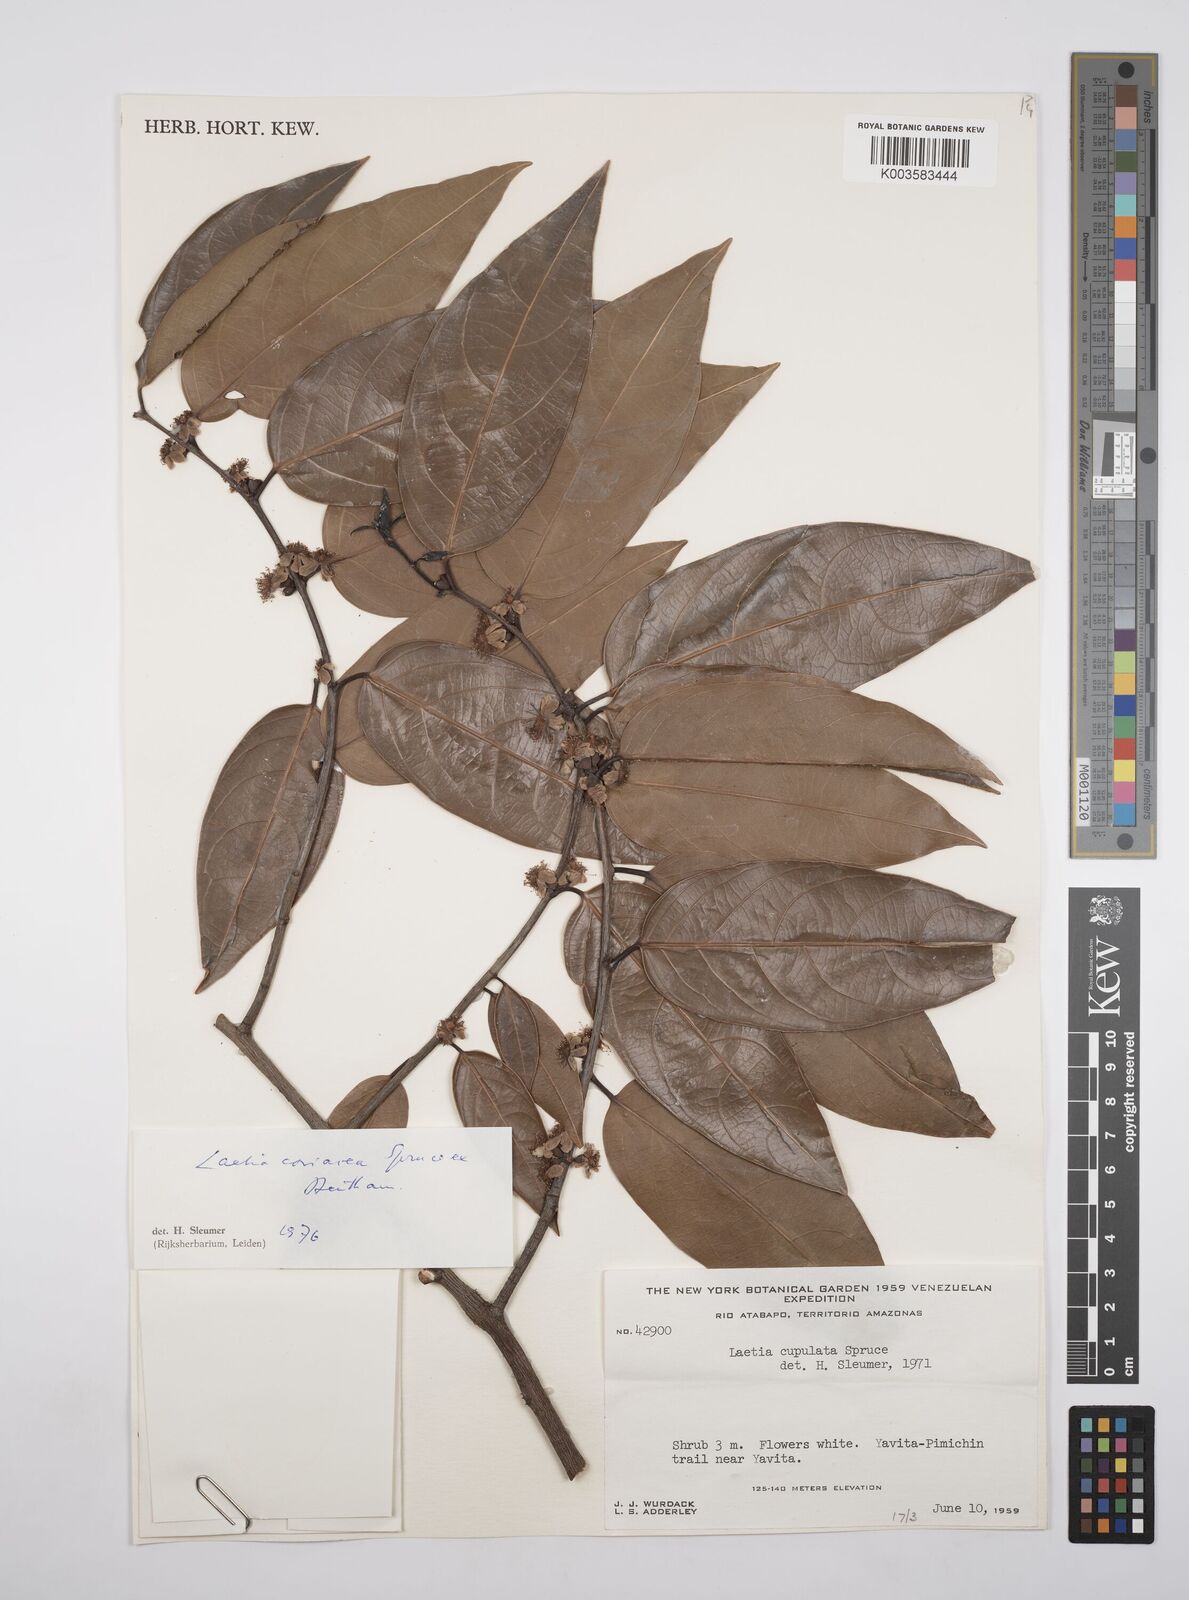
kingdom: Plantae
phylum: Tracheophyta
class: Magnoliopsida
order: Malpighiales
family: Salicaceae
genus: Irenodendron
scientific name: Irenodendron coriaceum
